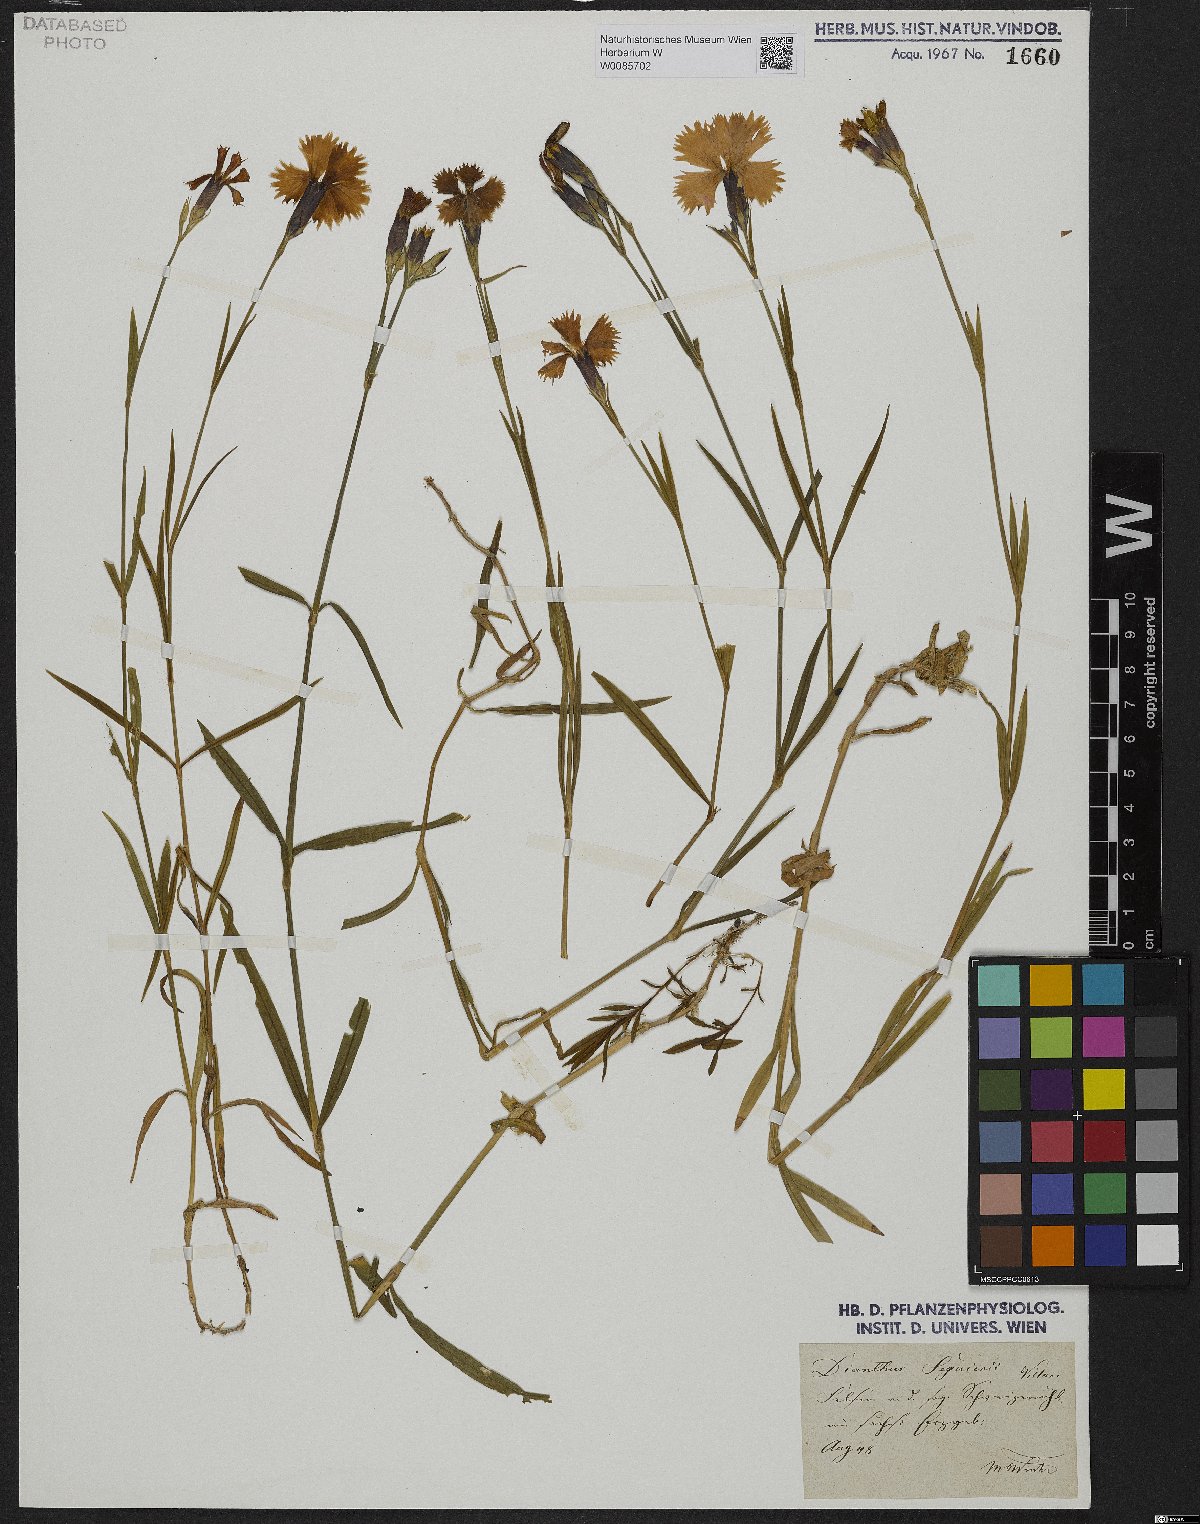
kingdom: Plantae
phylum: Tracheophyta
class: Magnoliopsida
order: Caryophyllales
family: Caryophyllaceae
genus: Dianthus
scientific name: Dianthus seguieri
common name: Ragged pink
